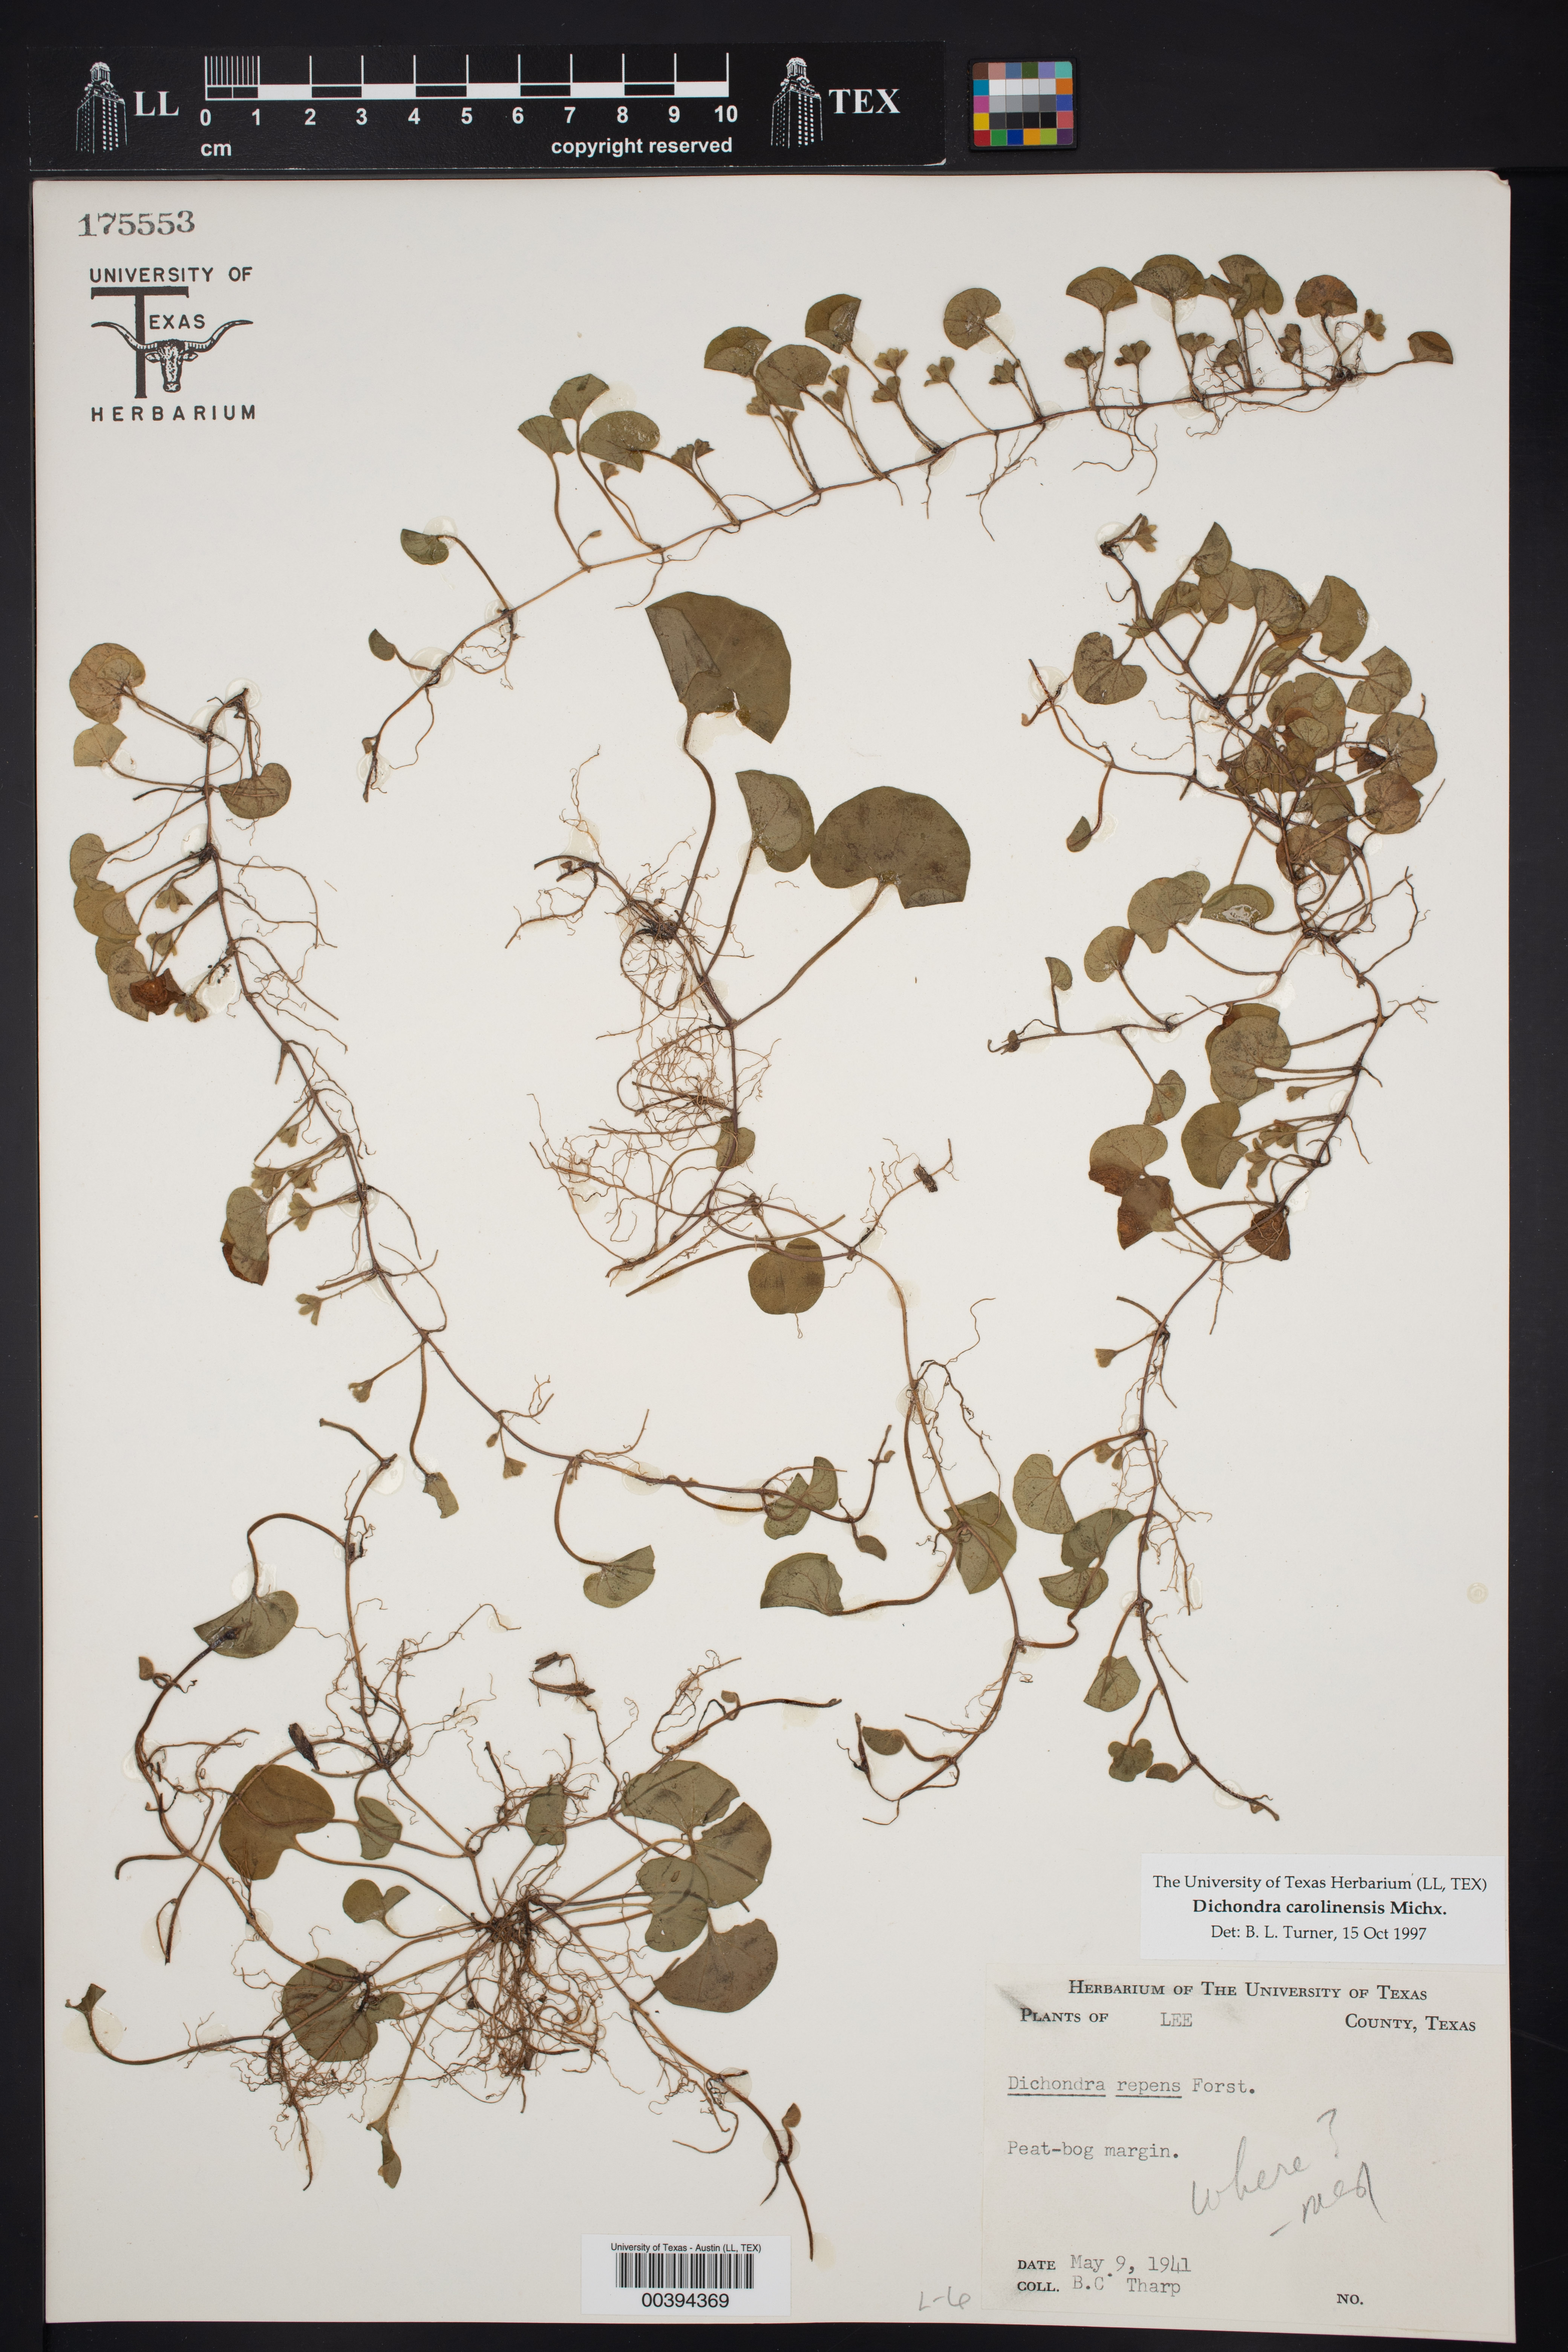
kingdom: Plantae
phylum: Tracheophyta
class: Magnoliopsida
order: Solanales
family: Convolvulaceae
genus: Dichondra
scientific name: Dichondra carolinensis
